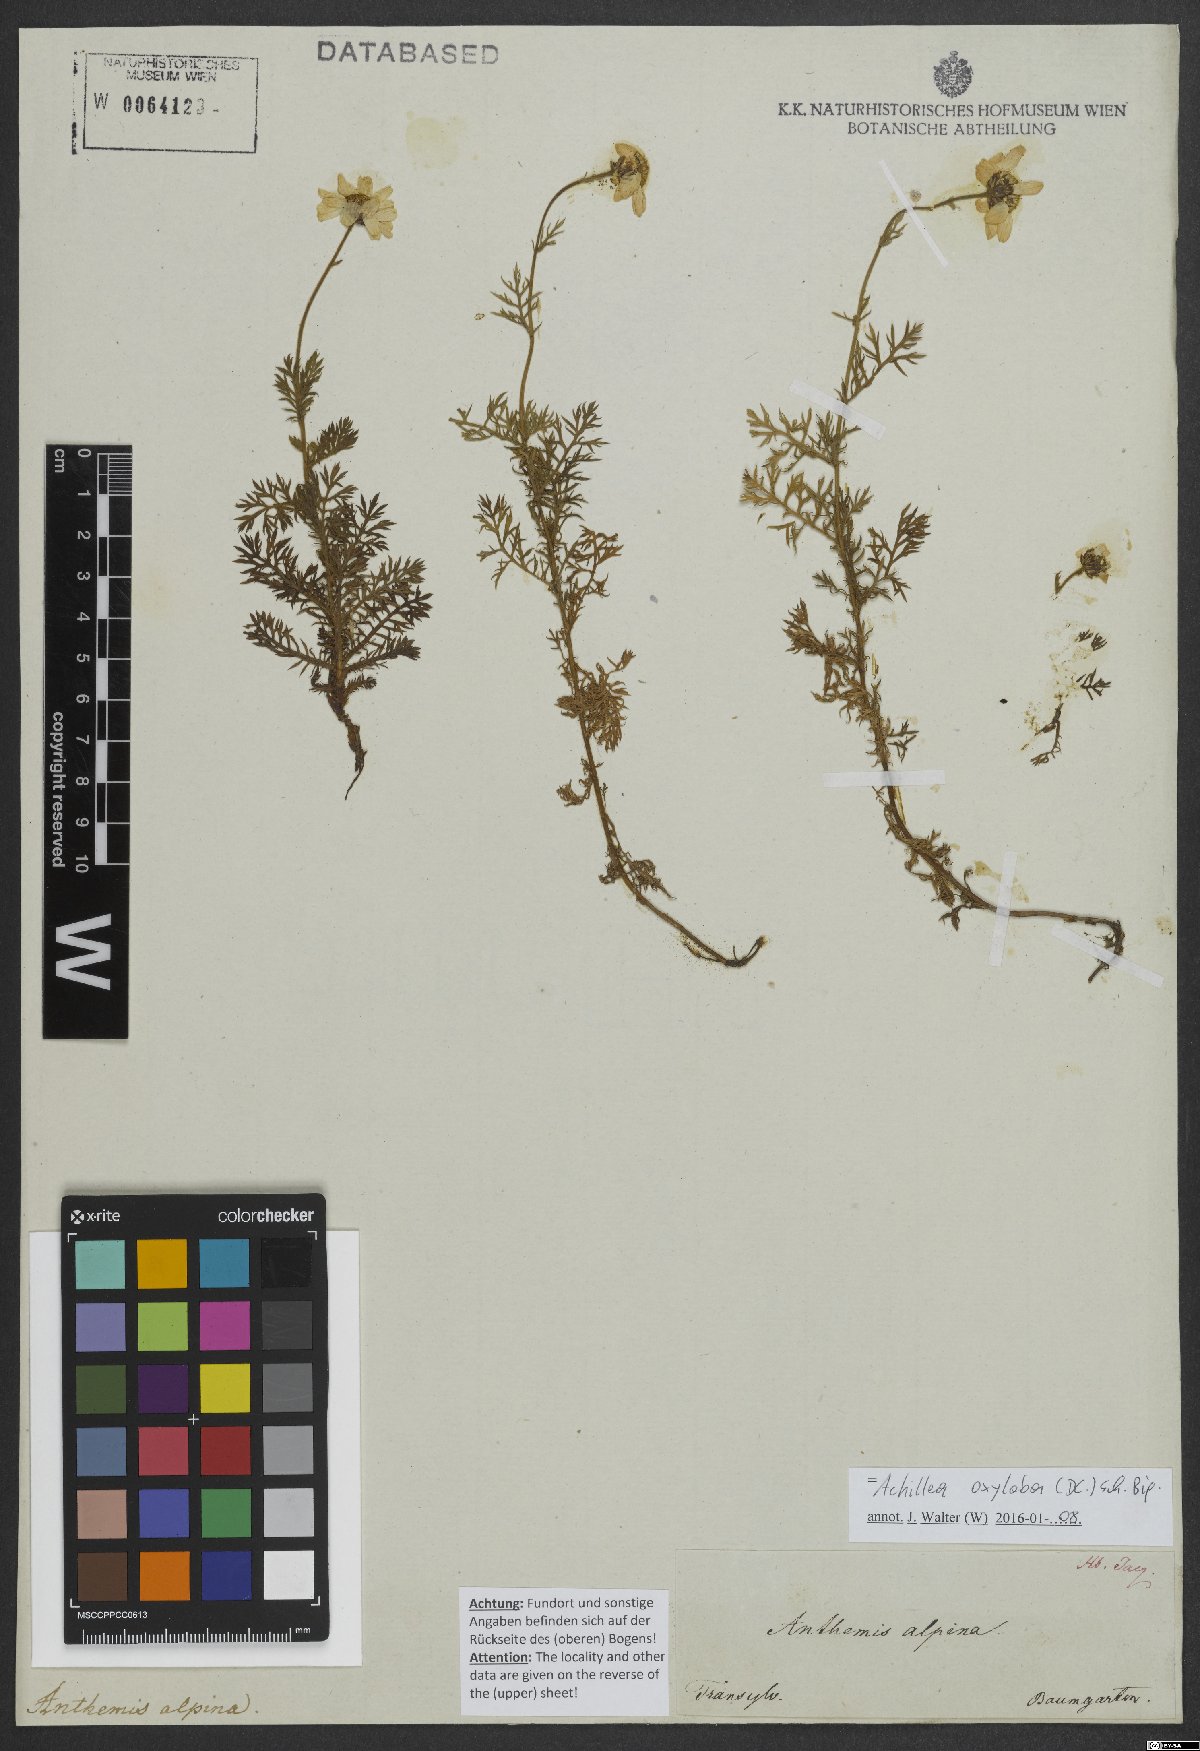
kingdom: Plantae
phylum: Tracheophyta
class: Magnoliopsida
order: Asterales
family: Asteraceae
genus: Achillea
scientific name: Achillea oxyloba
